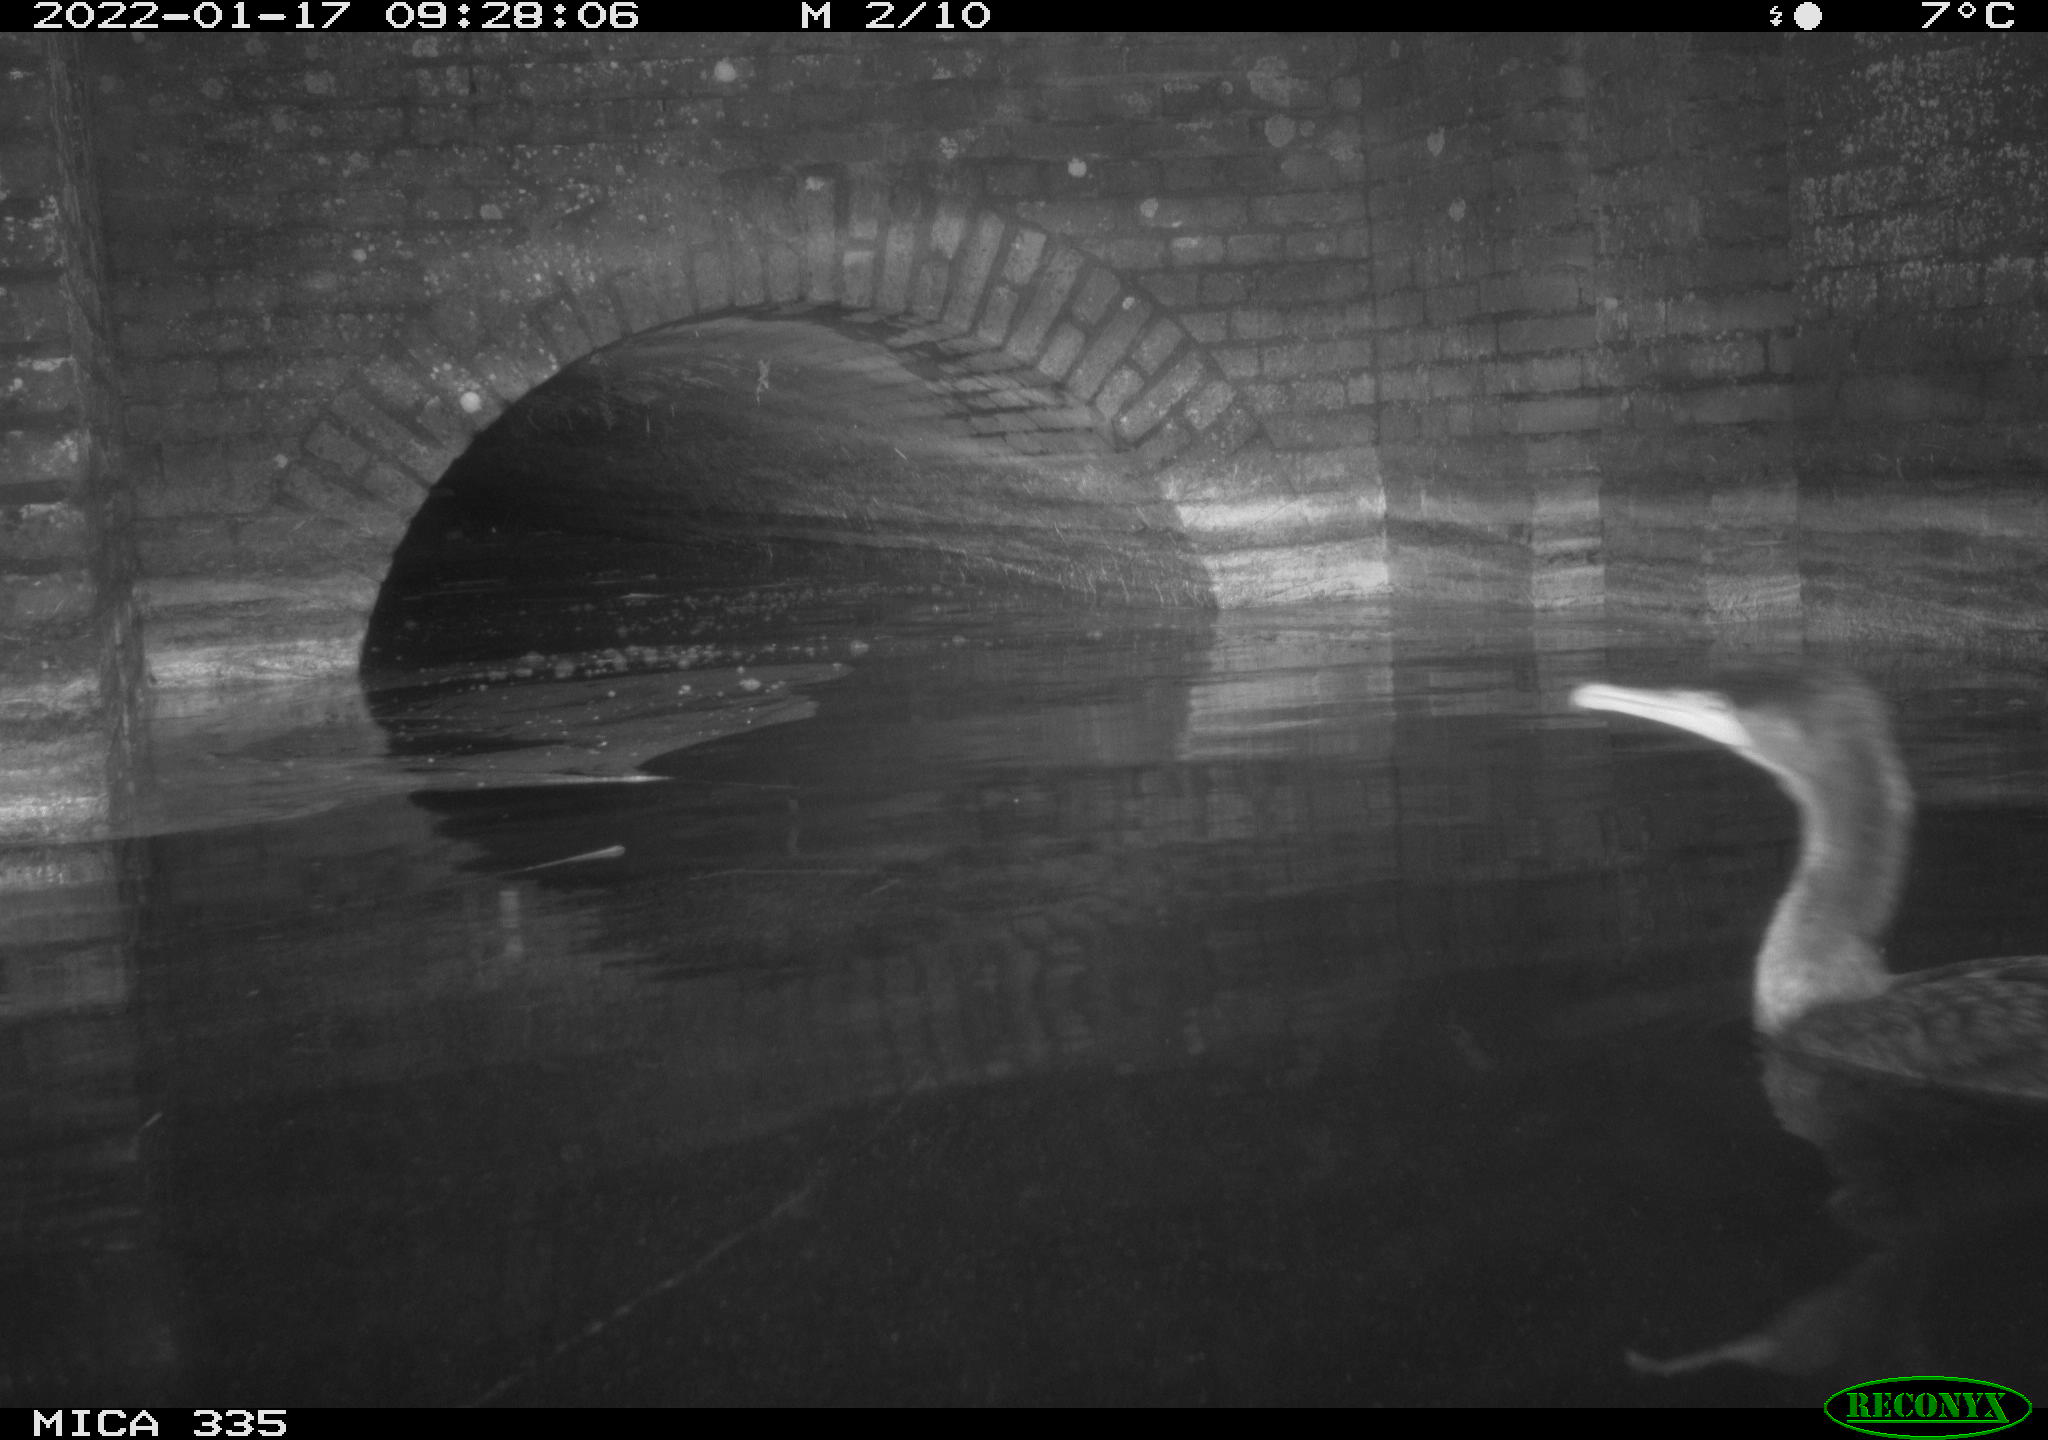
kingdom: Animalia
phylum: Chordata
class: Aves
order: Suliformes
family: Phalacrocoracidae
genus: Phalacrocorax
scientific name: Phalacrocorax carbo
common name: Great cormorant
